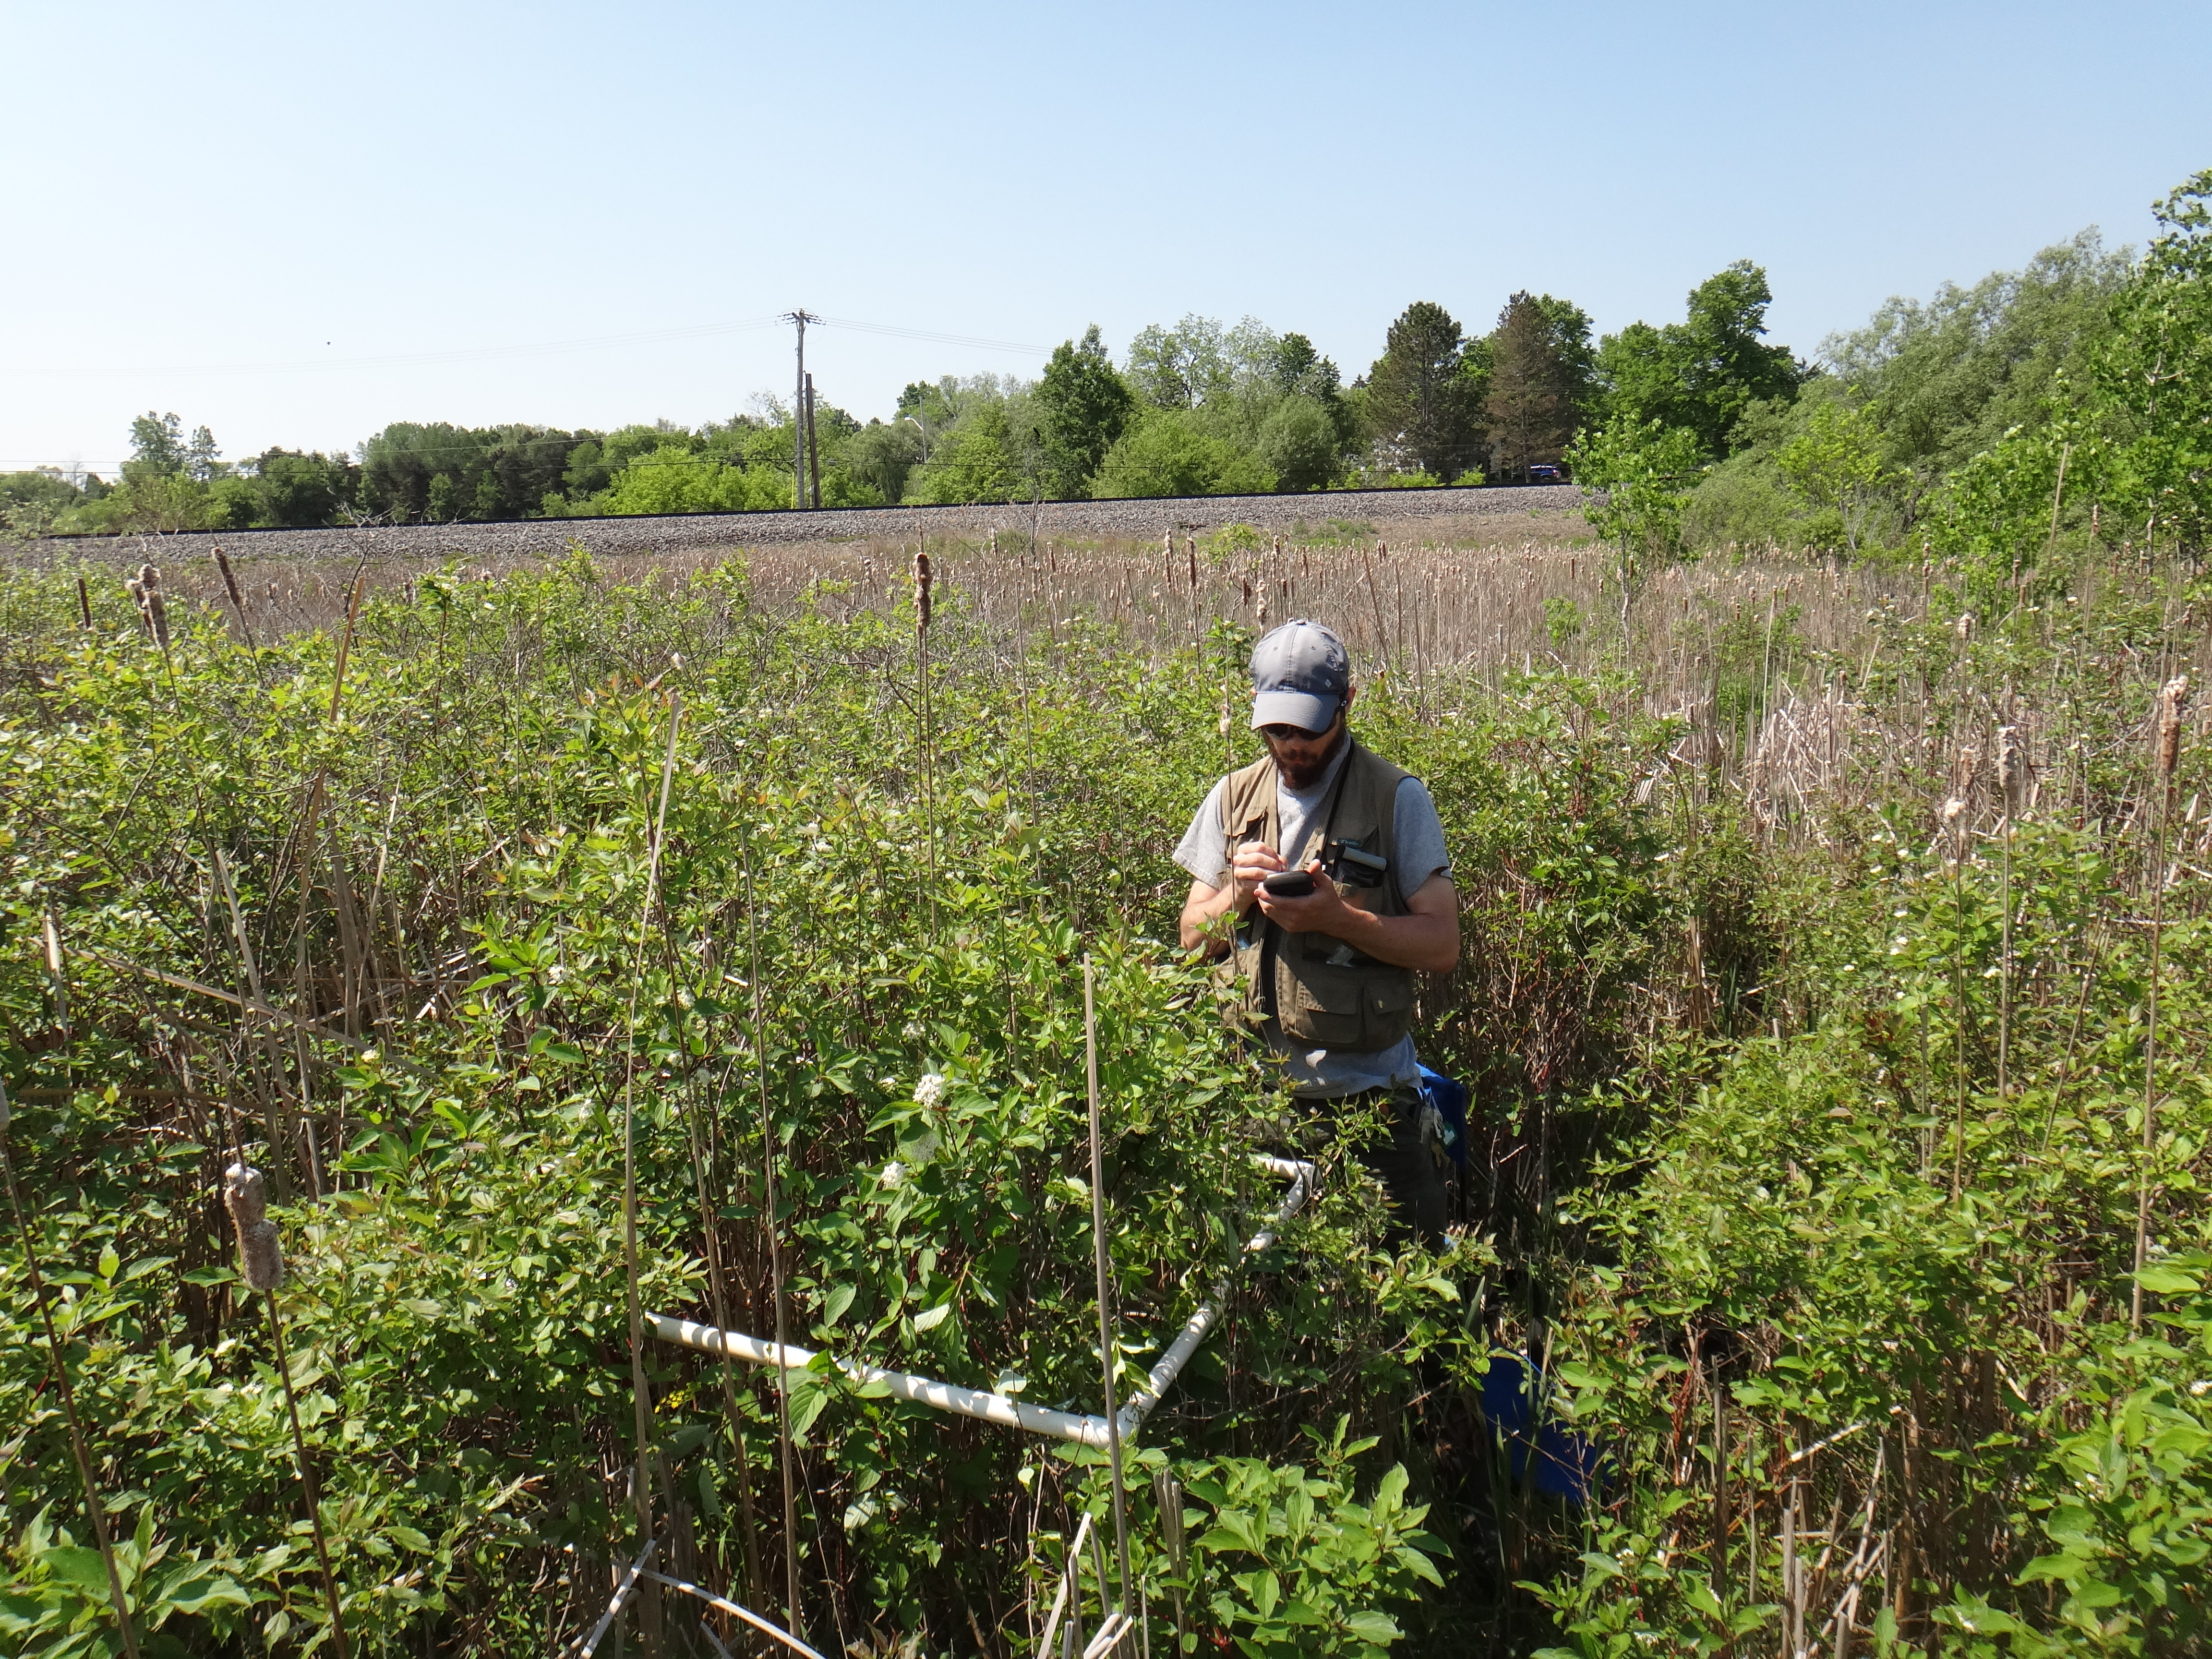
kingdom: Plantae
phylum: Tracheophyta
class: Magnoliopsida
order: Asterales
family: Asteraceae
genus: Symphyotrichum
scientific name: Symphyotrichum lanceolatum
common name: Panicled aster
